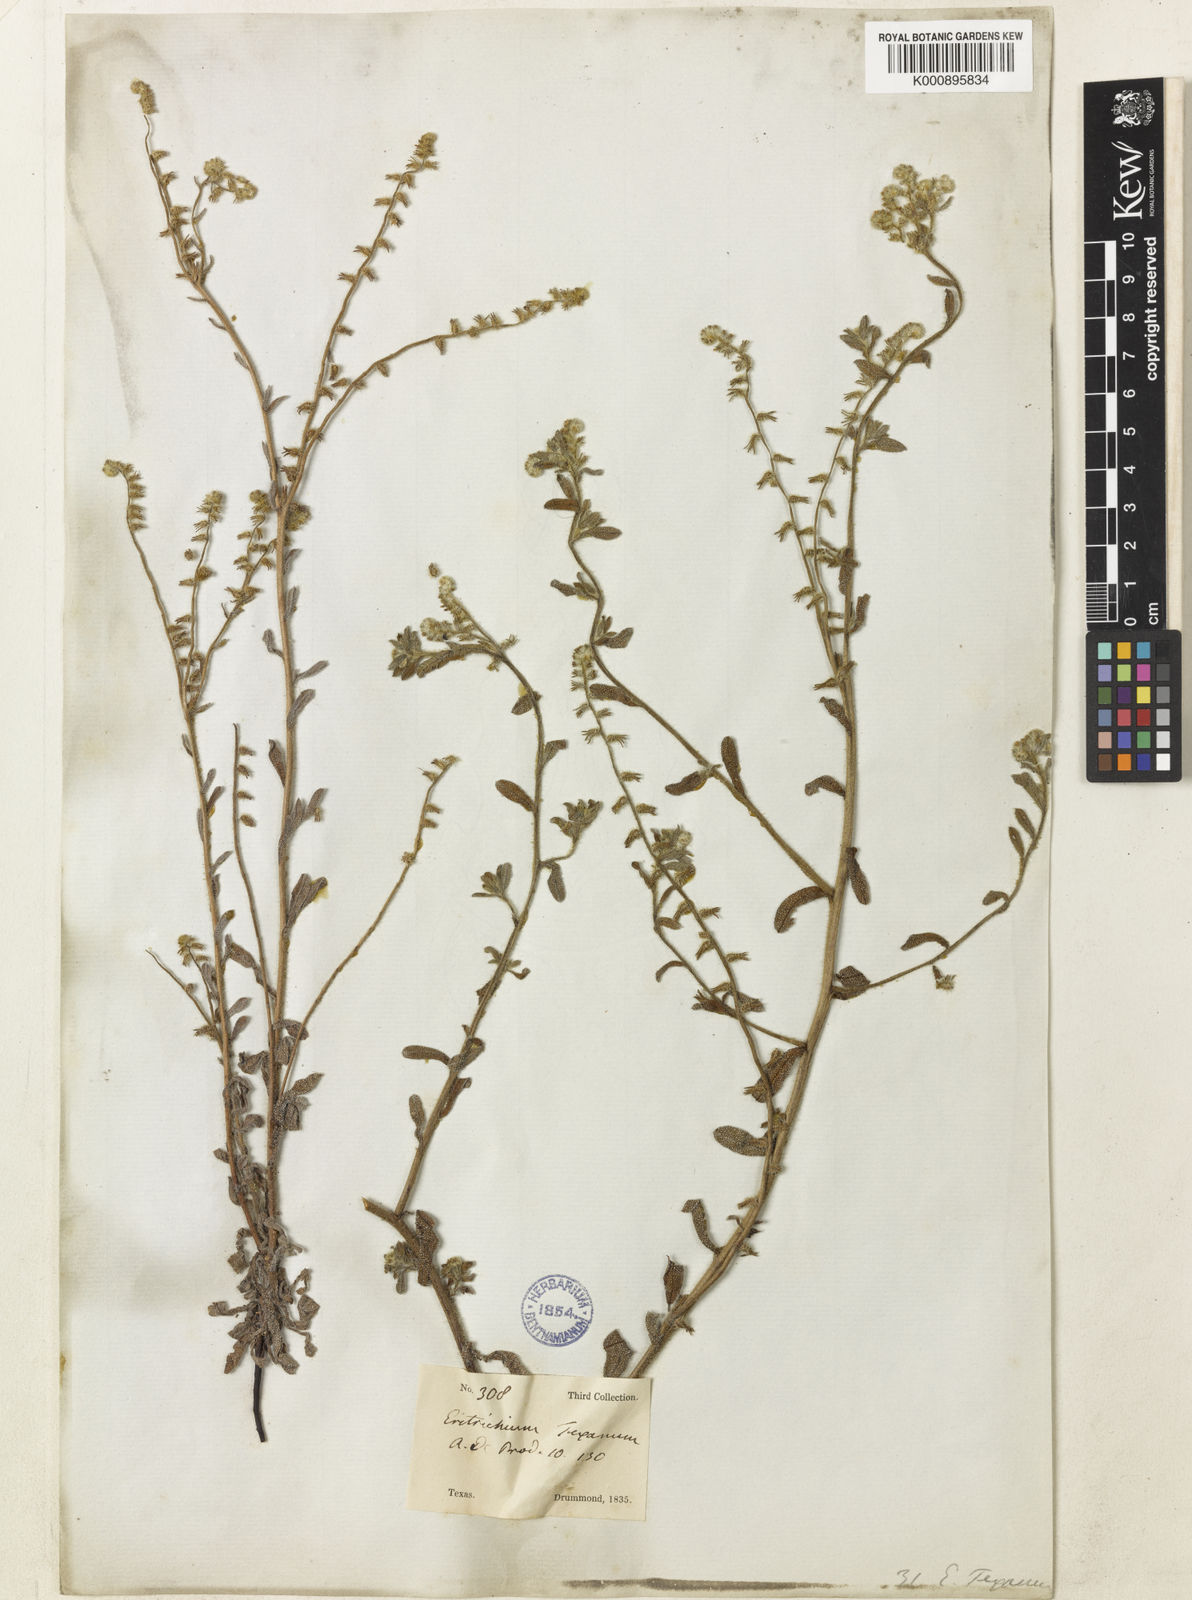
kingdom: Plantae
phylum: Tracheophyta
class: Magnoliopsida
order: Boraginales
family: Boraginaceae
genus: Cryptantha
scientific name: Cryptantha texana
